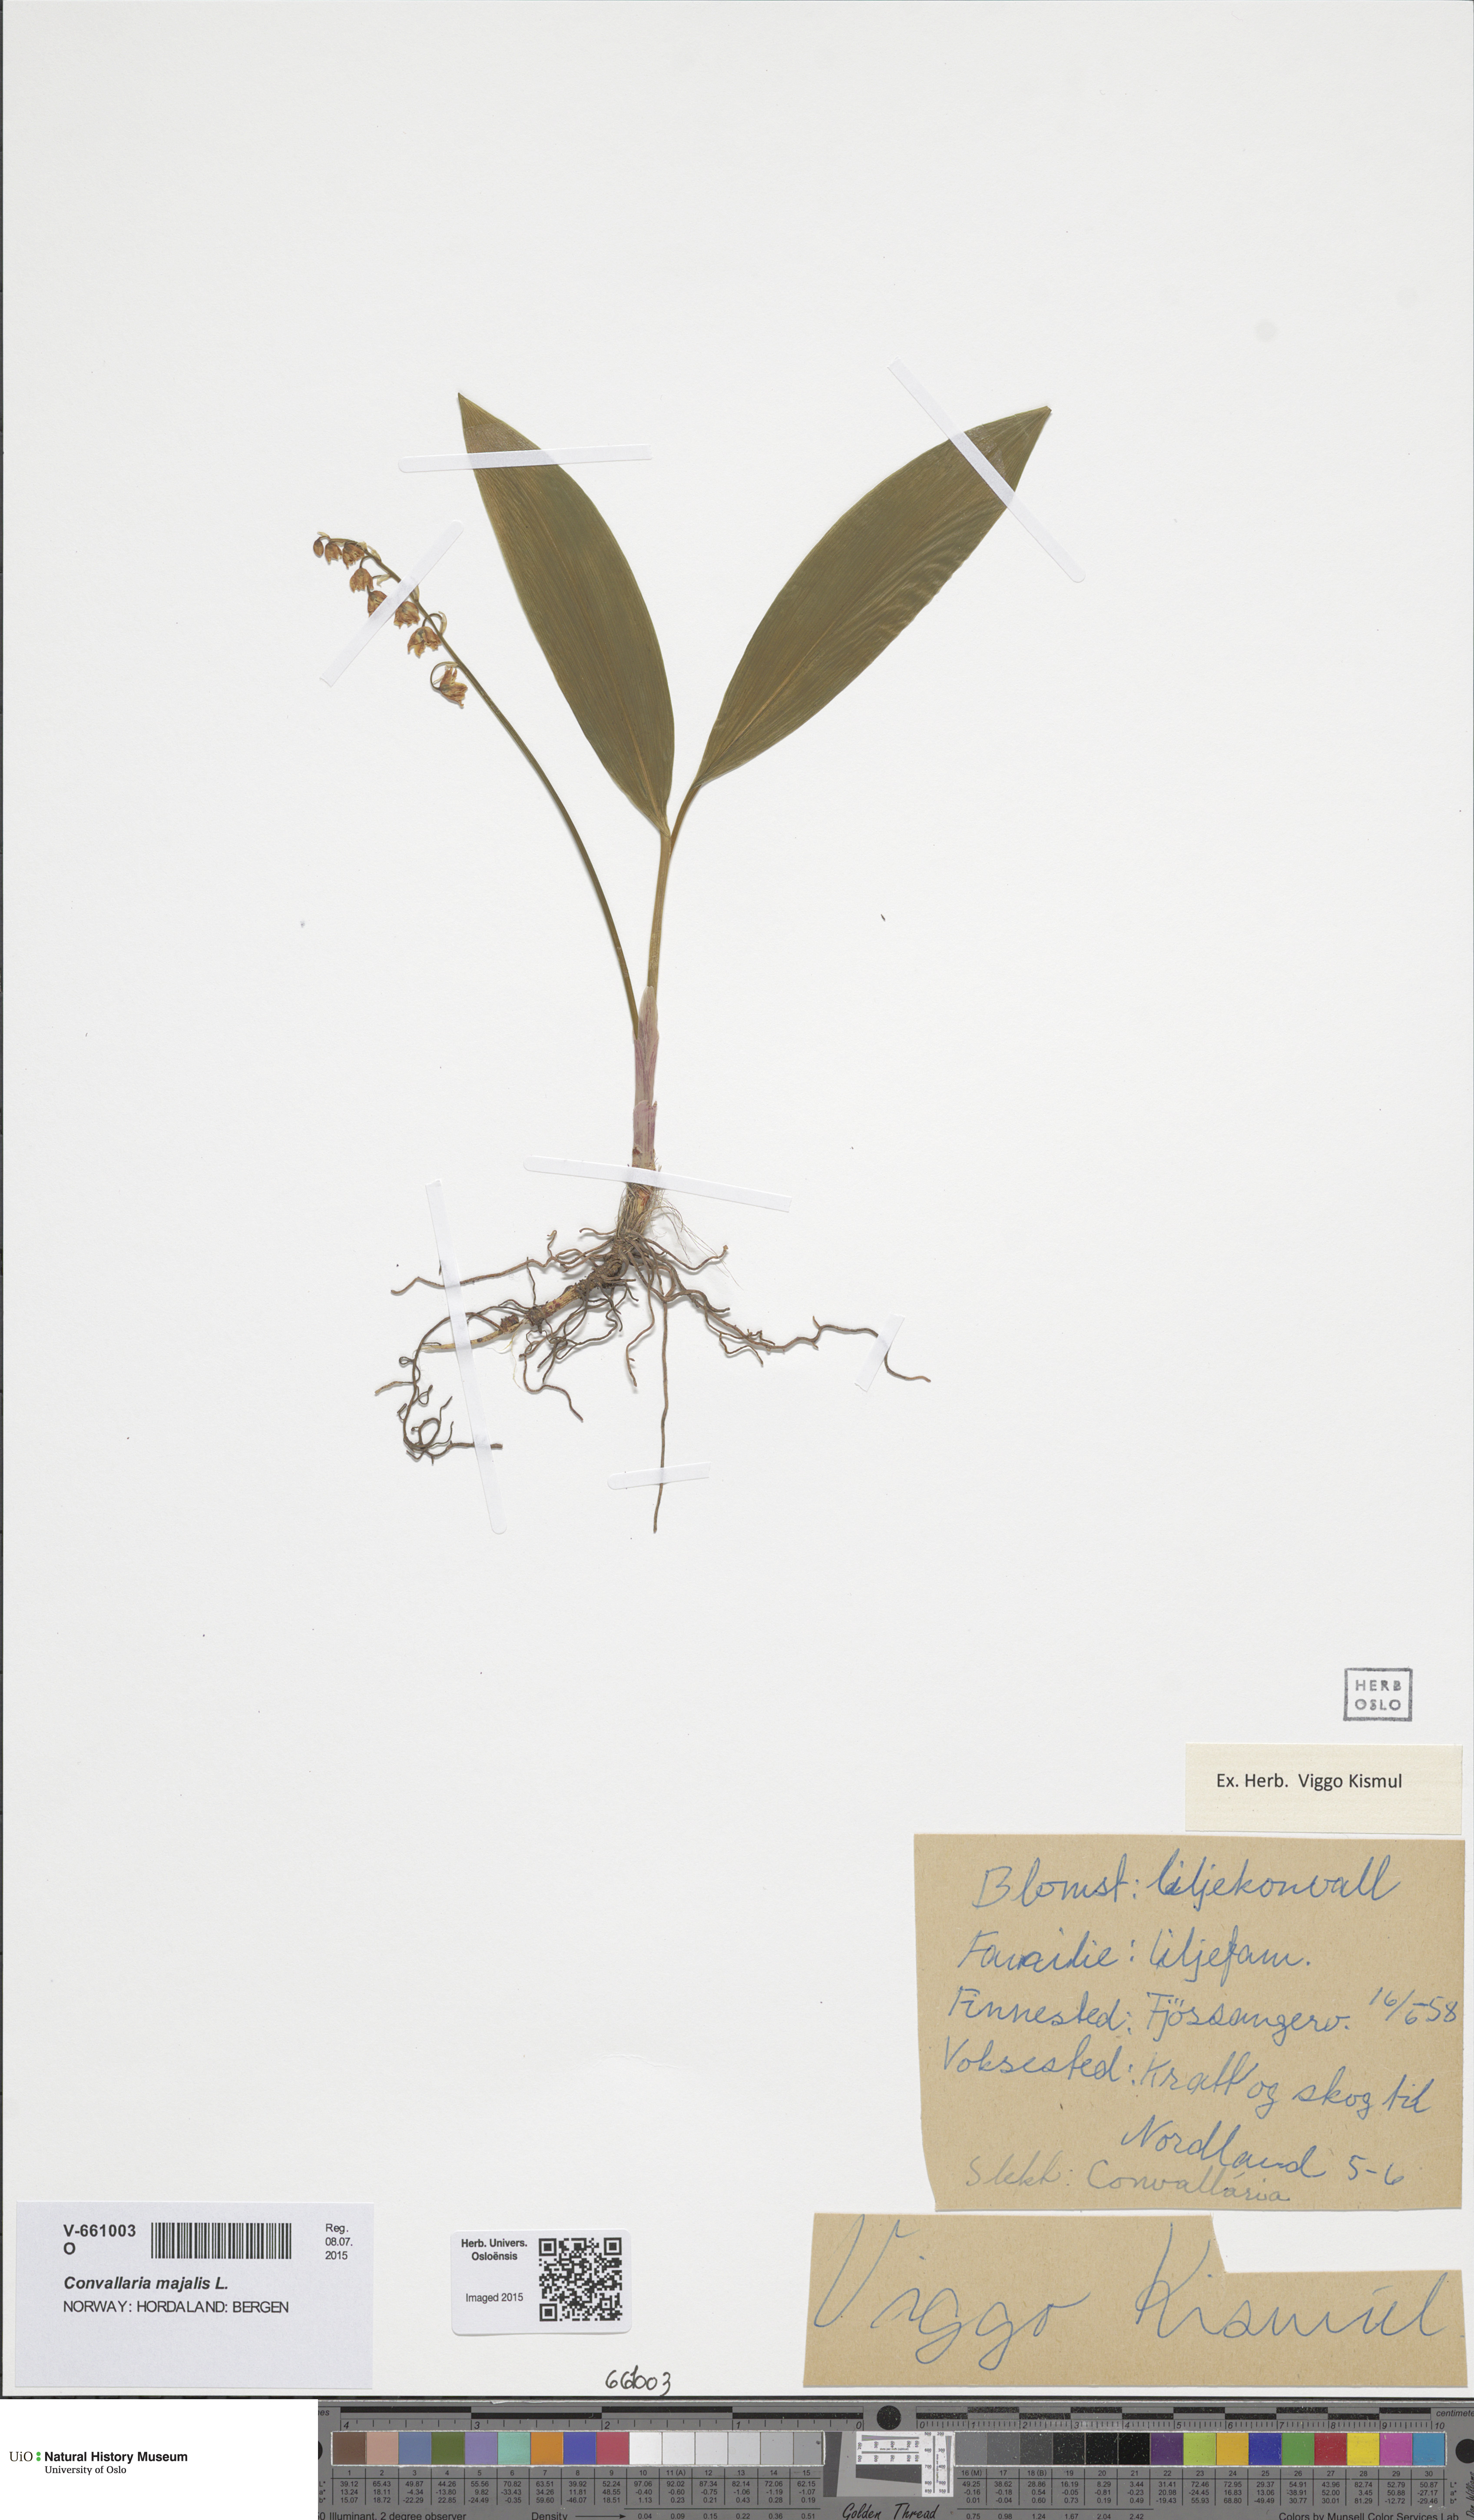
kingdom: Plantae
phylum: Tracheophyta
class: Liliopsida
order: Asparagales
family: Asparagaceae
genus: Convallaria
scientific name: Convallaria majalis
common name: Lily-of-the-valley
